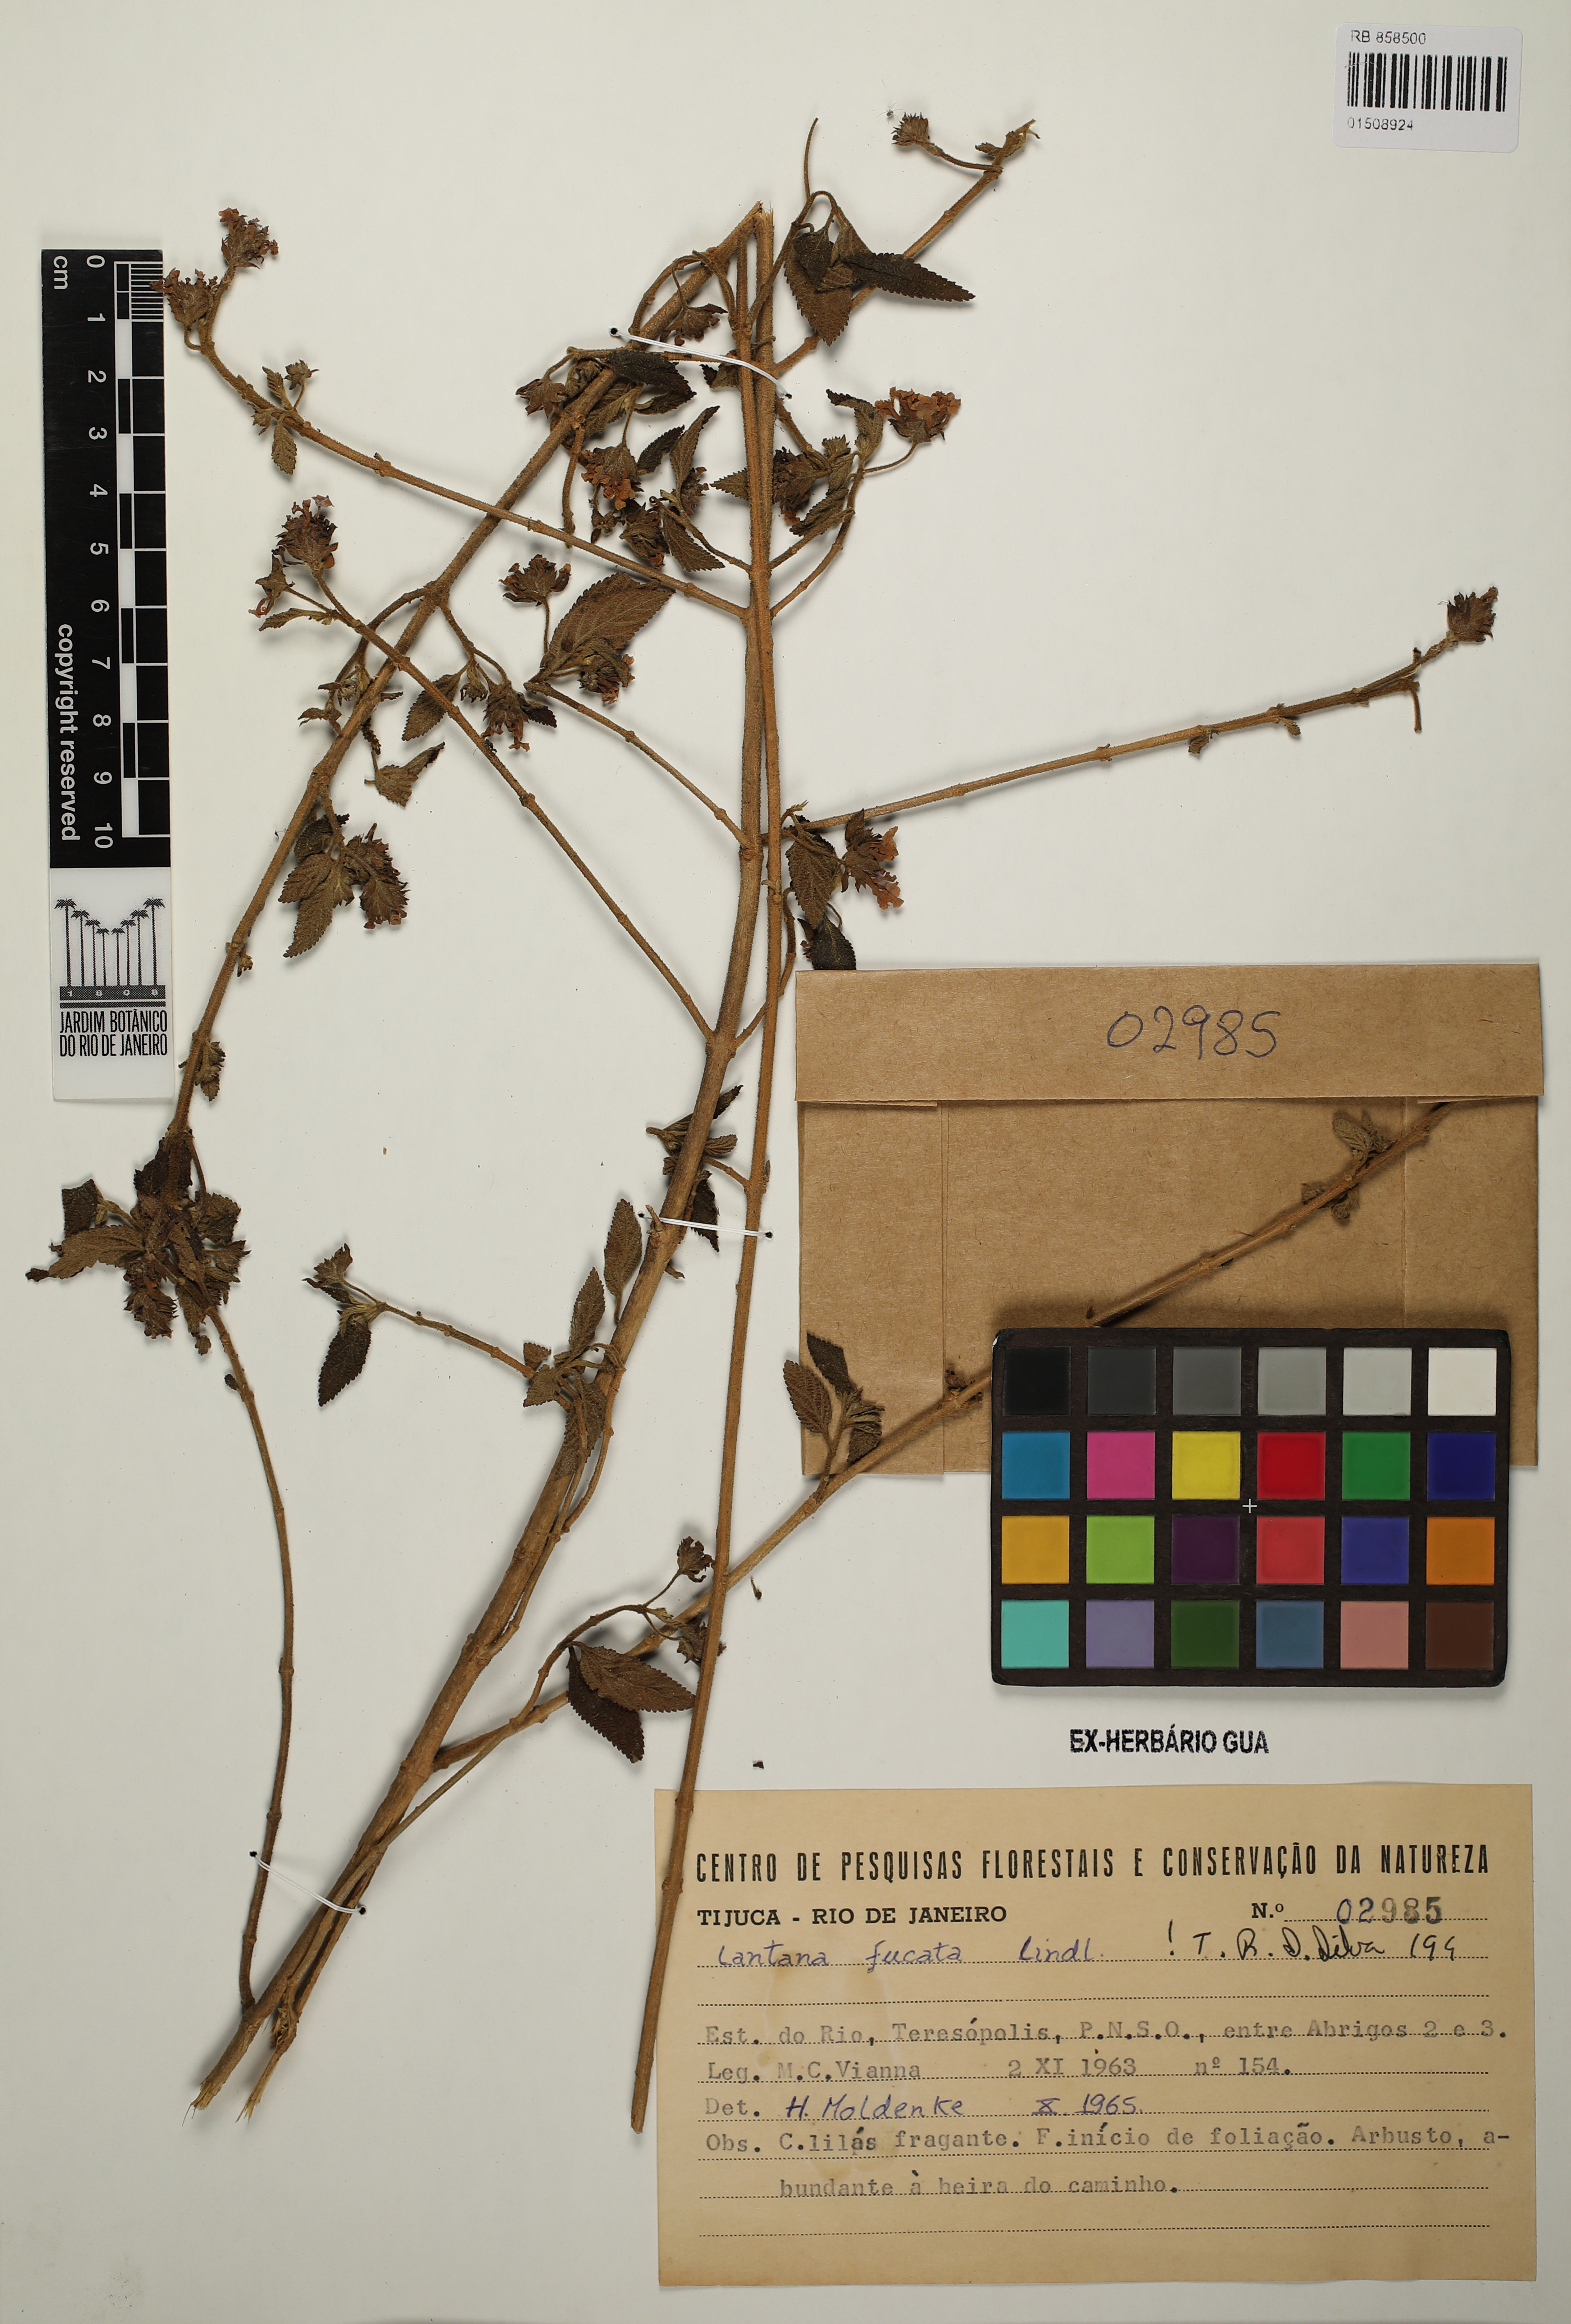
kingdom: Plantae
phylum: Tracheophyta
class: Magnoliopsida
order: Lamiales
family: Verbenaceae
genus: Lantana
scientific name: Lantana fucata
